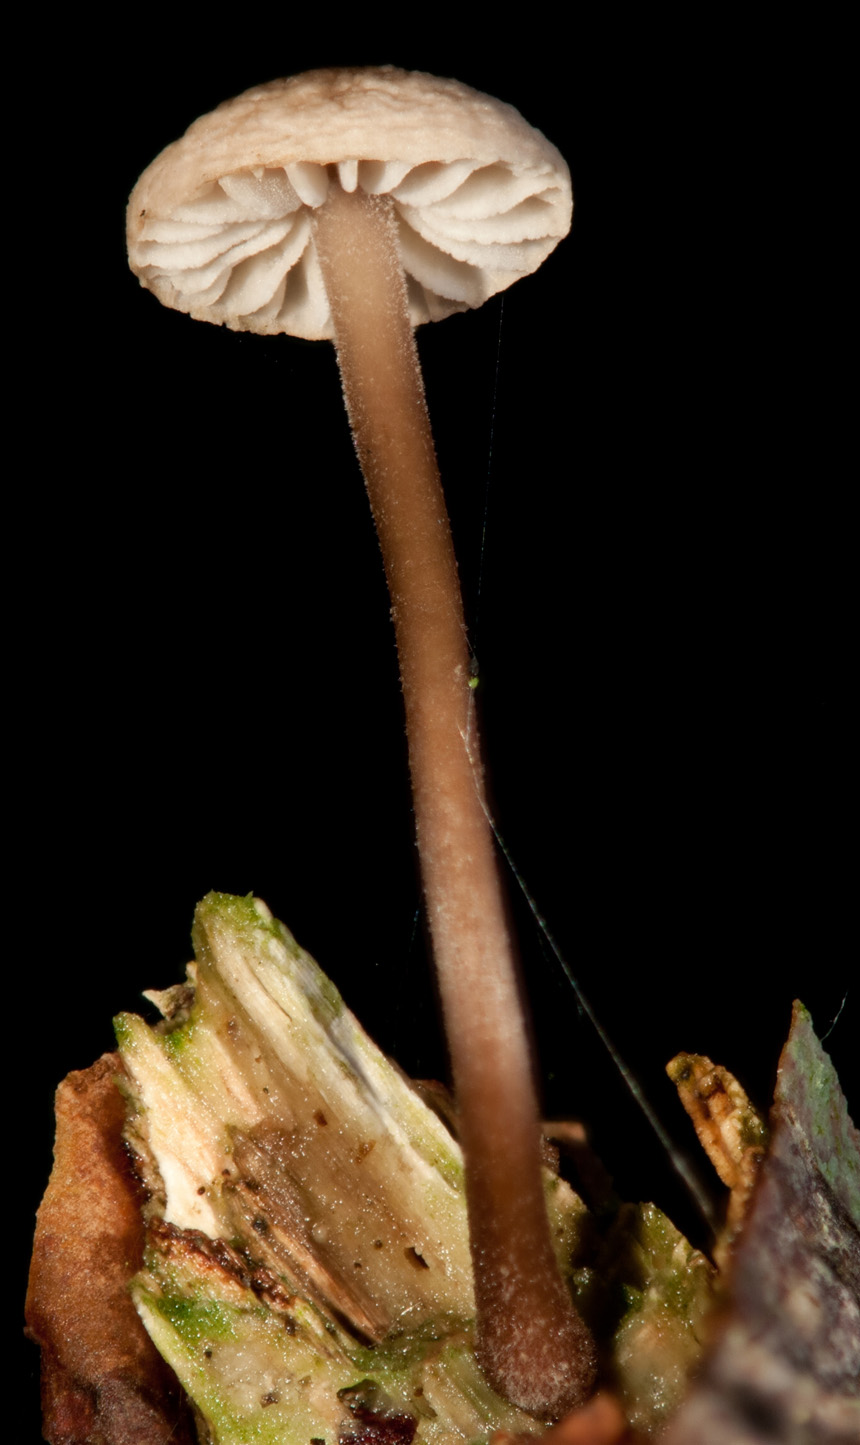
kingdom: Fungi
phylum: Basidiomycota
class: Agaricomycetes
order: Agaricales
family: Omphalotaceae
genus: Mycetinis
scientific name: Mycetinis alliaceus
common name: stor løghat
